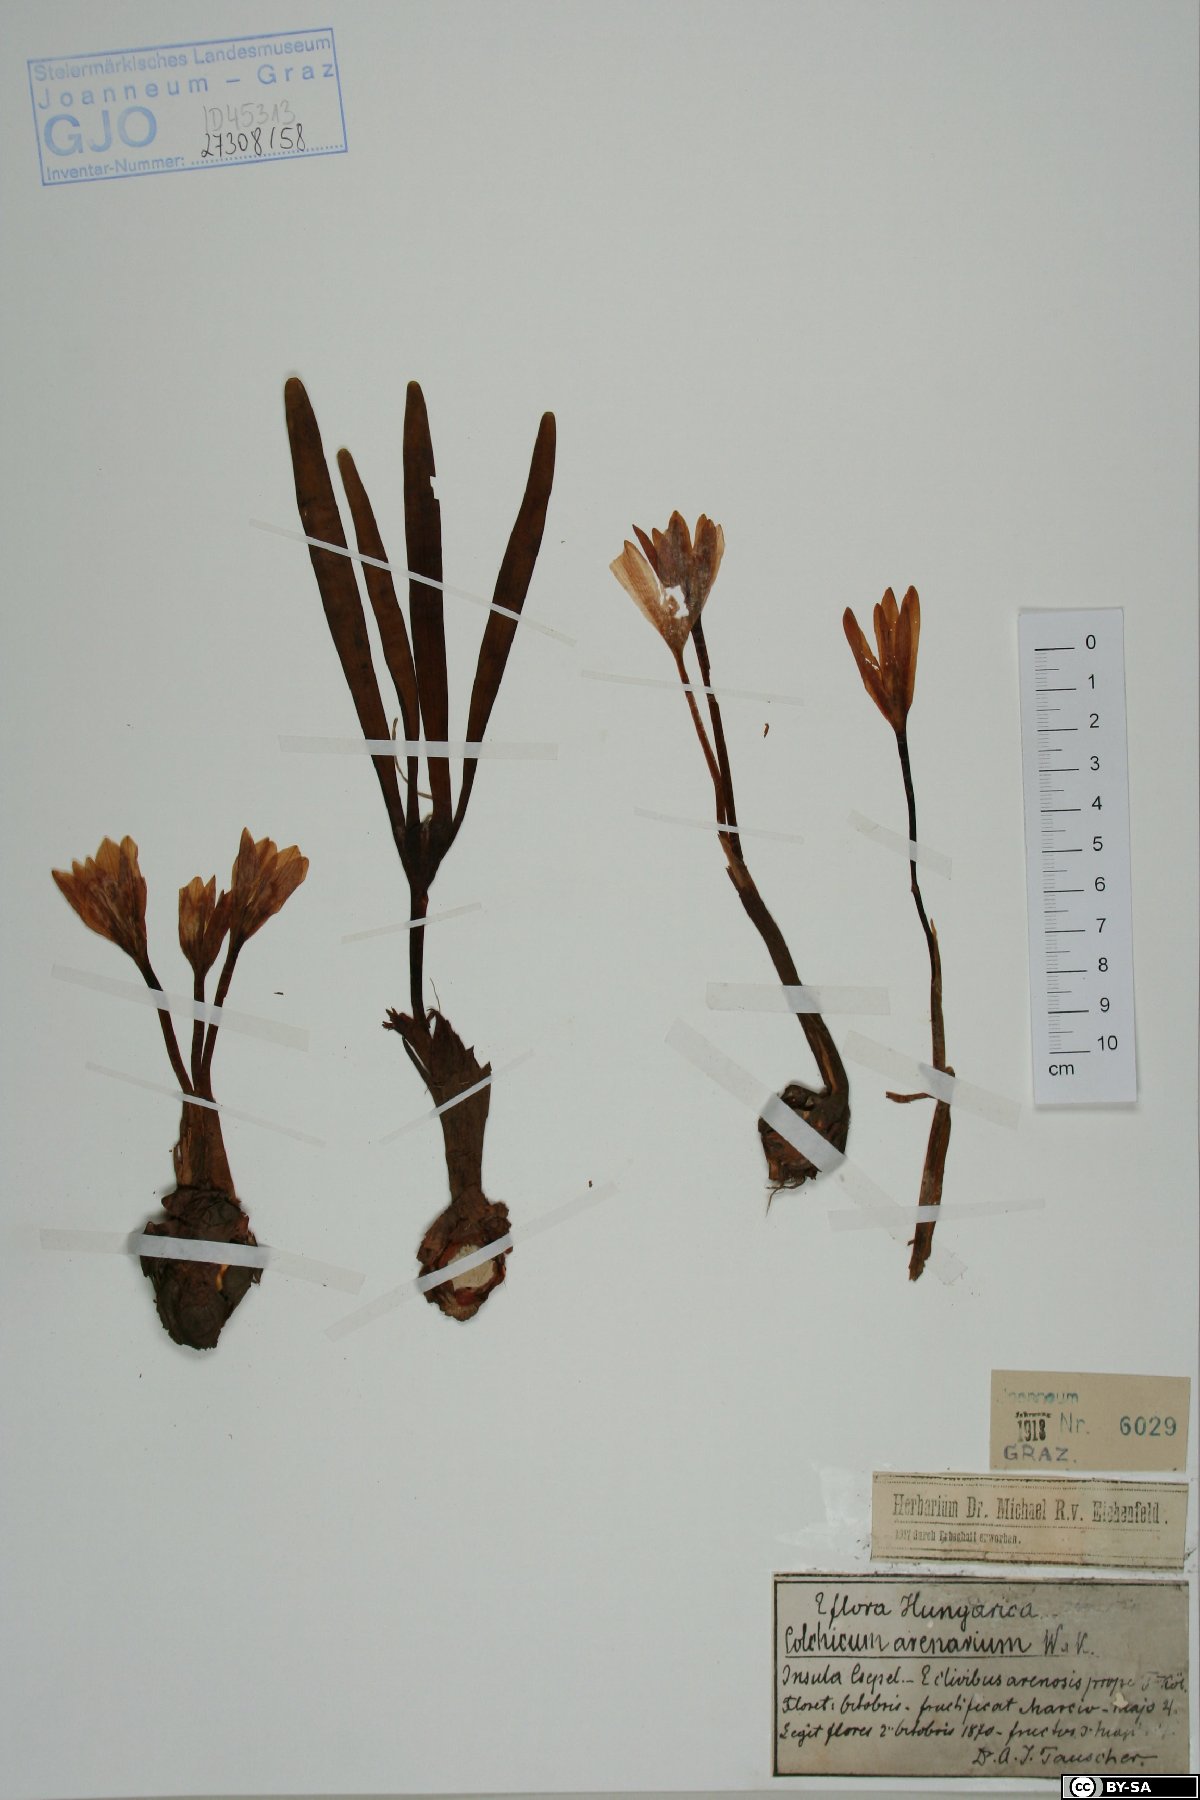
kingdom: Plantae
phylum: Tracheophyta
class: Liliopsida
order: Liliales
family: Colchicaceae
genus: Colchicum
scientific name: Colchicum arenarium
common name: Sand saffron
